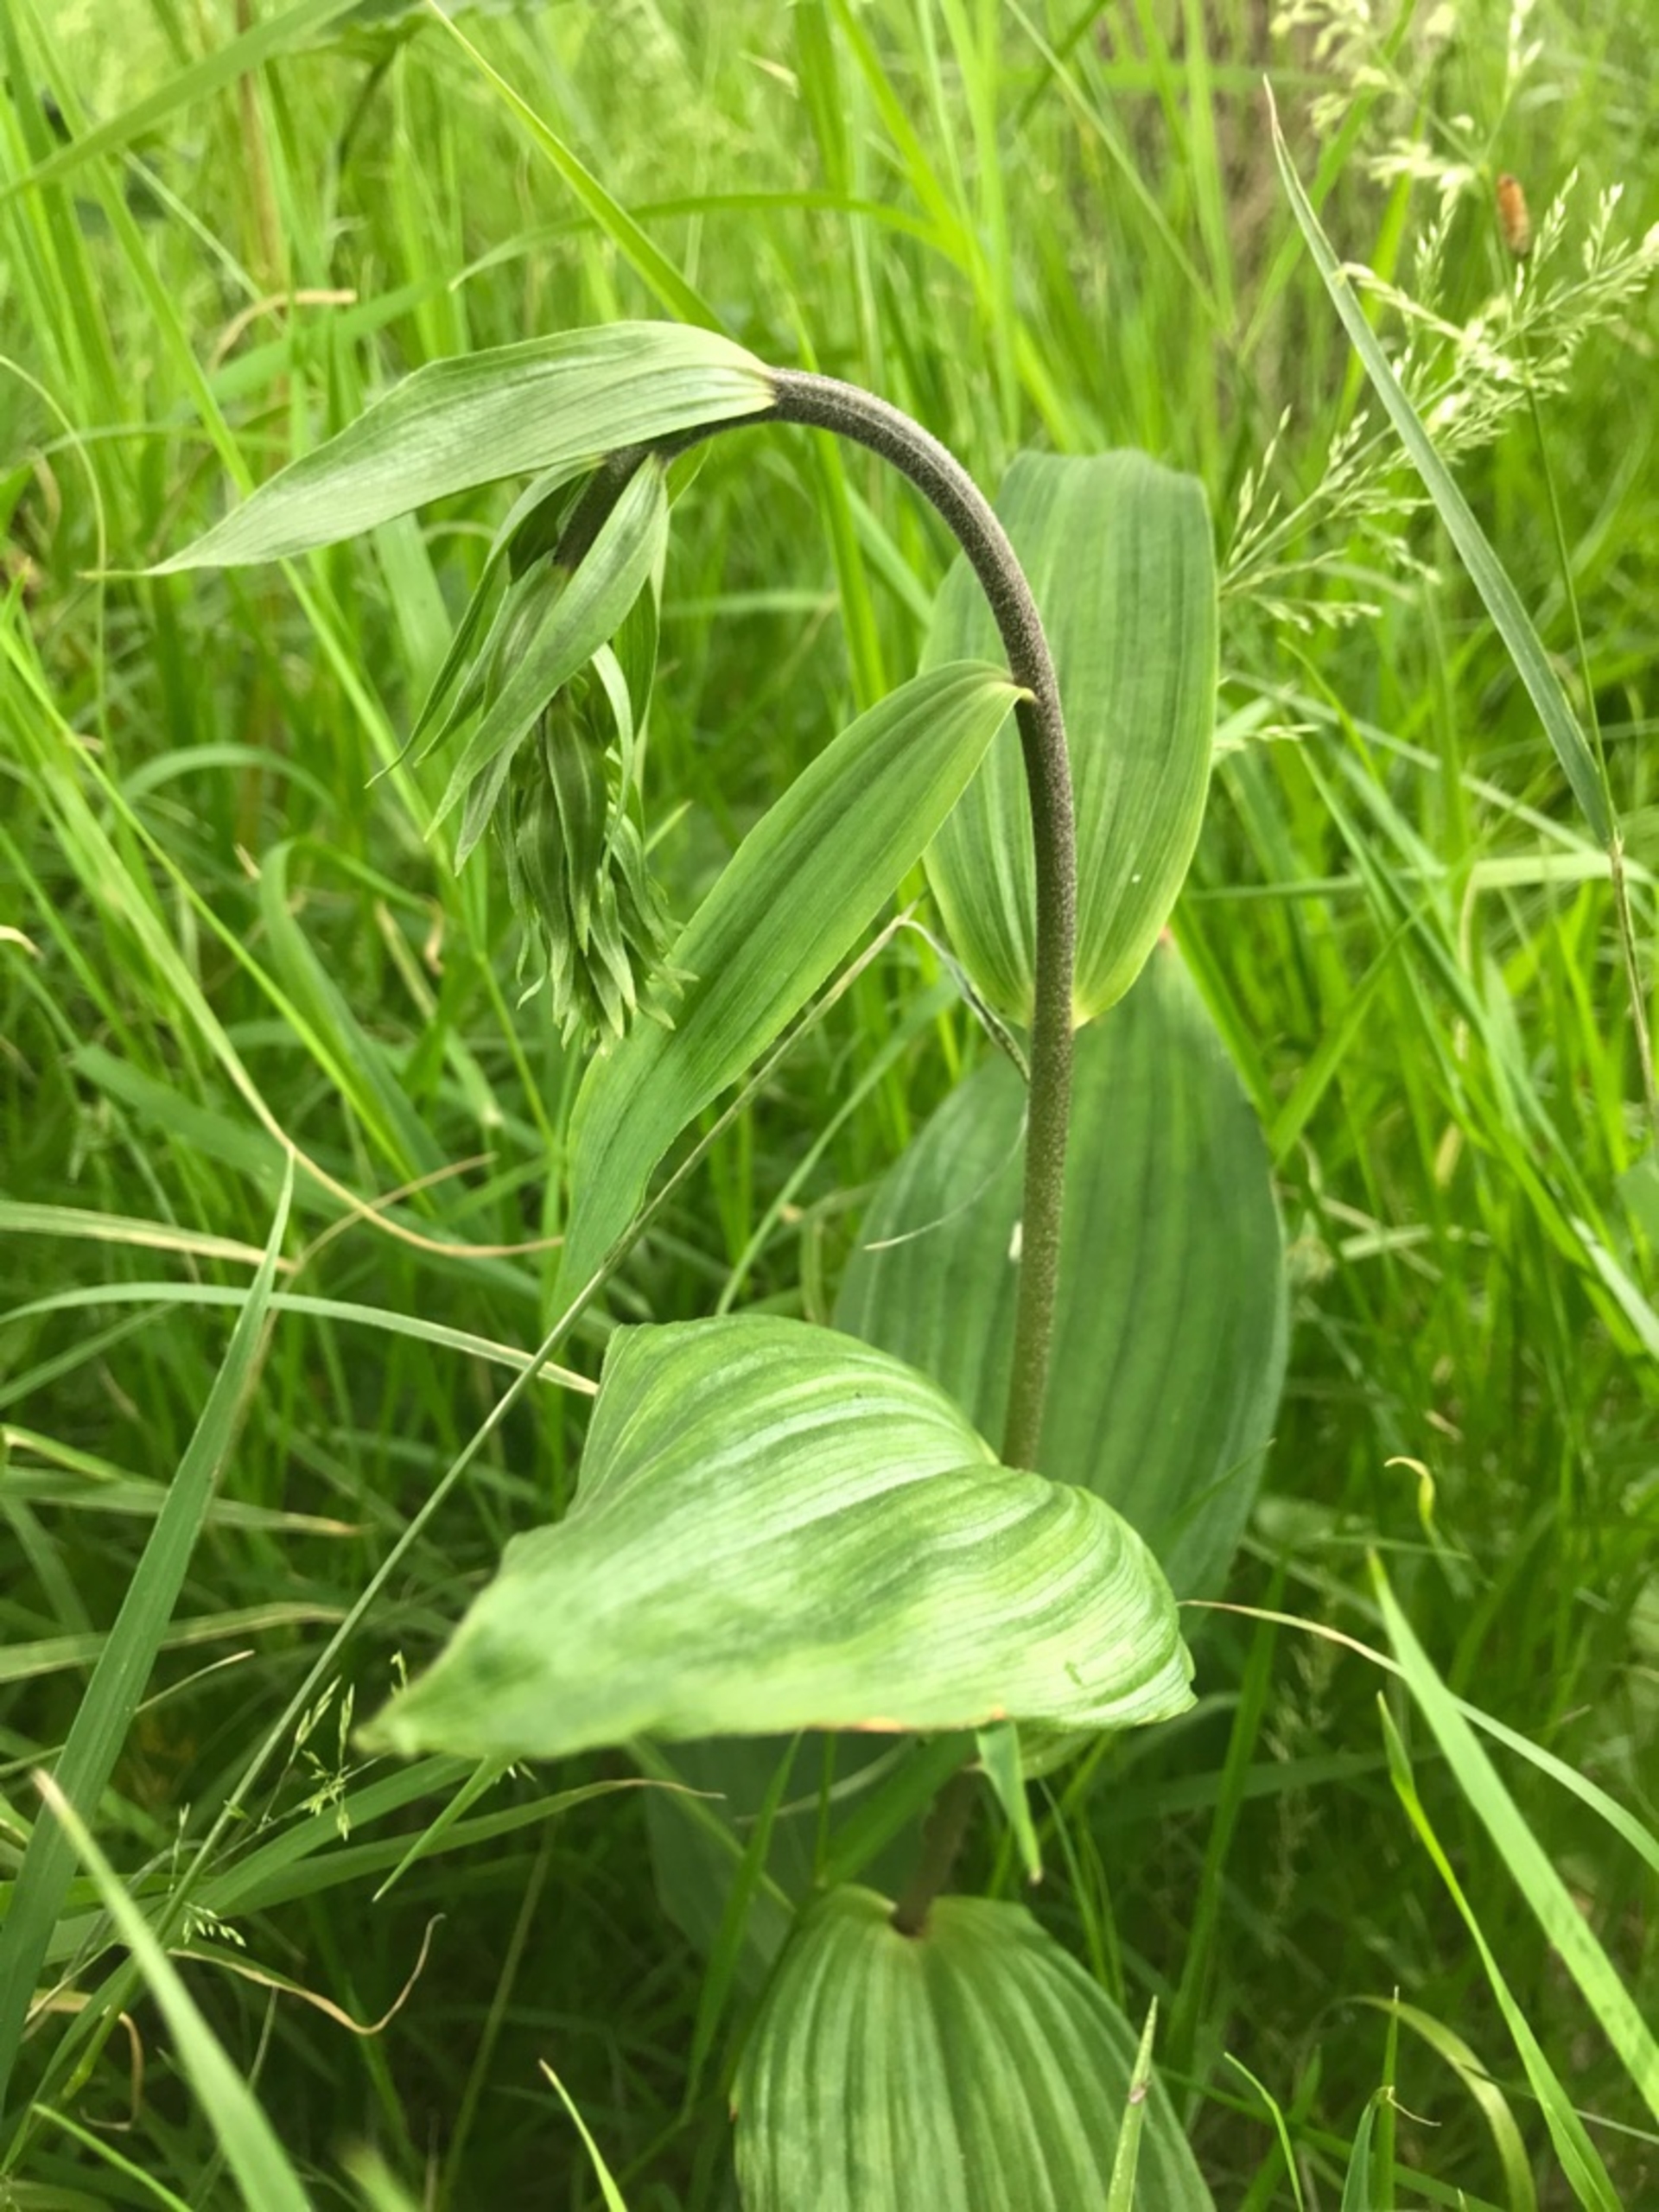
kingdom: Plantae
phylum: Tracheophyta
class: Liliopsida
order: Asparagales
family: Orchidaceae
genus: Epipactis
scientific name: Epipactis helleborine
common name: Skov-hullæbe
